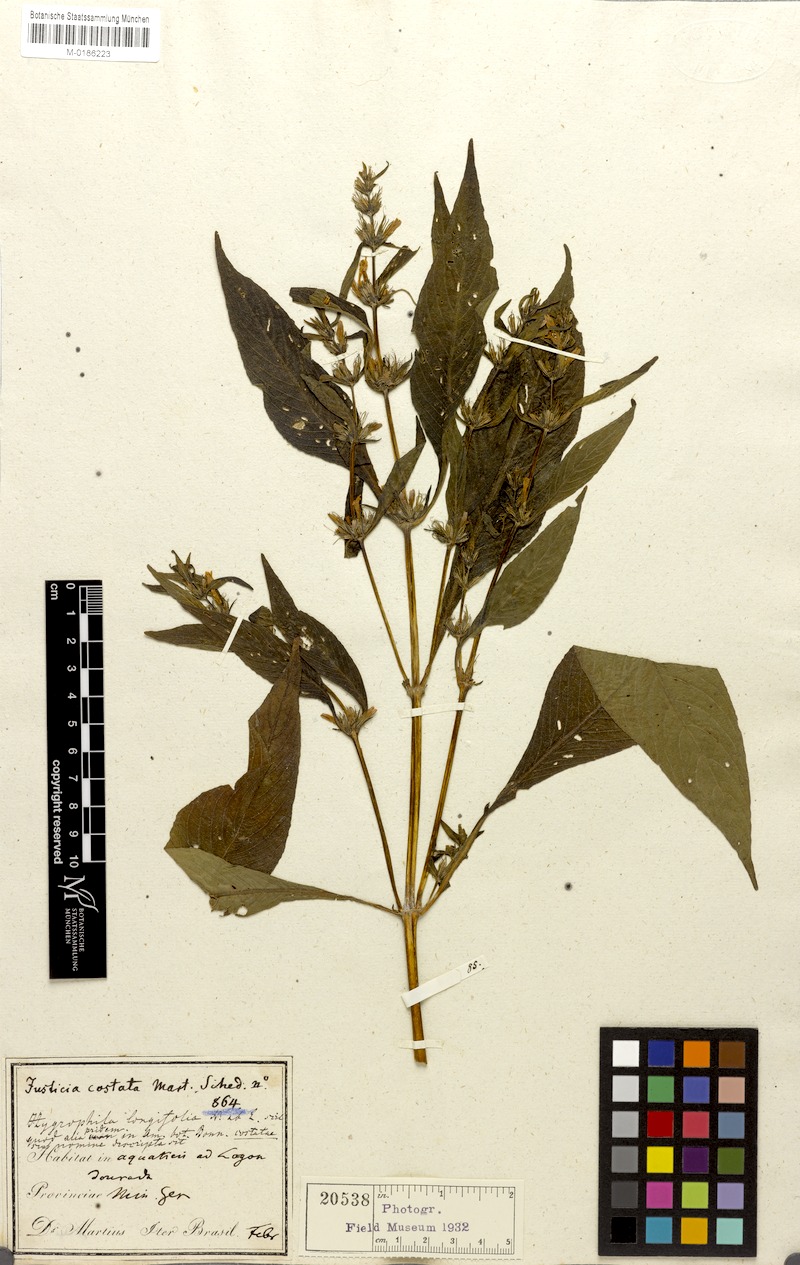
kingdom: Plantae
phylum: Tracheophyta
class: Magnoliopsida
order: Lamiales
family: Acanthaceae
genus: Hygrophila
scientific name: Hygrophila costata
